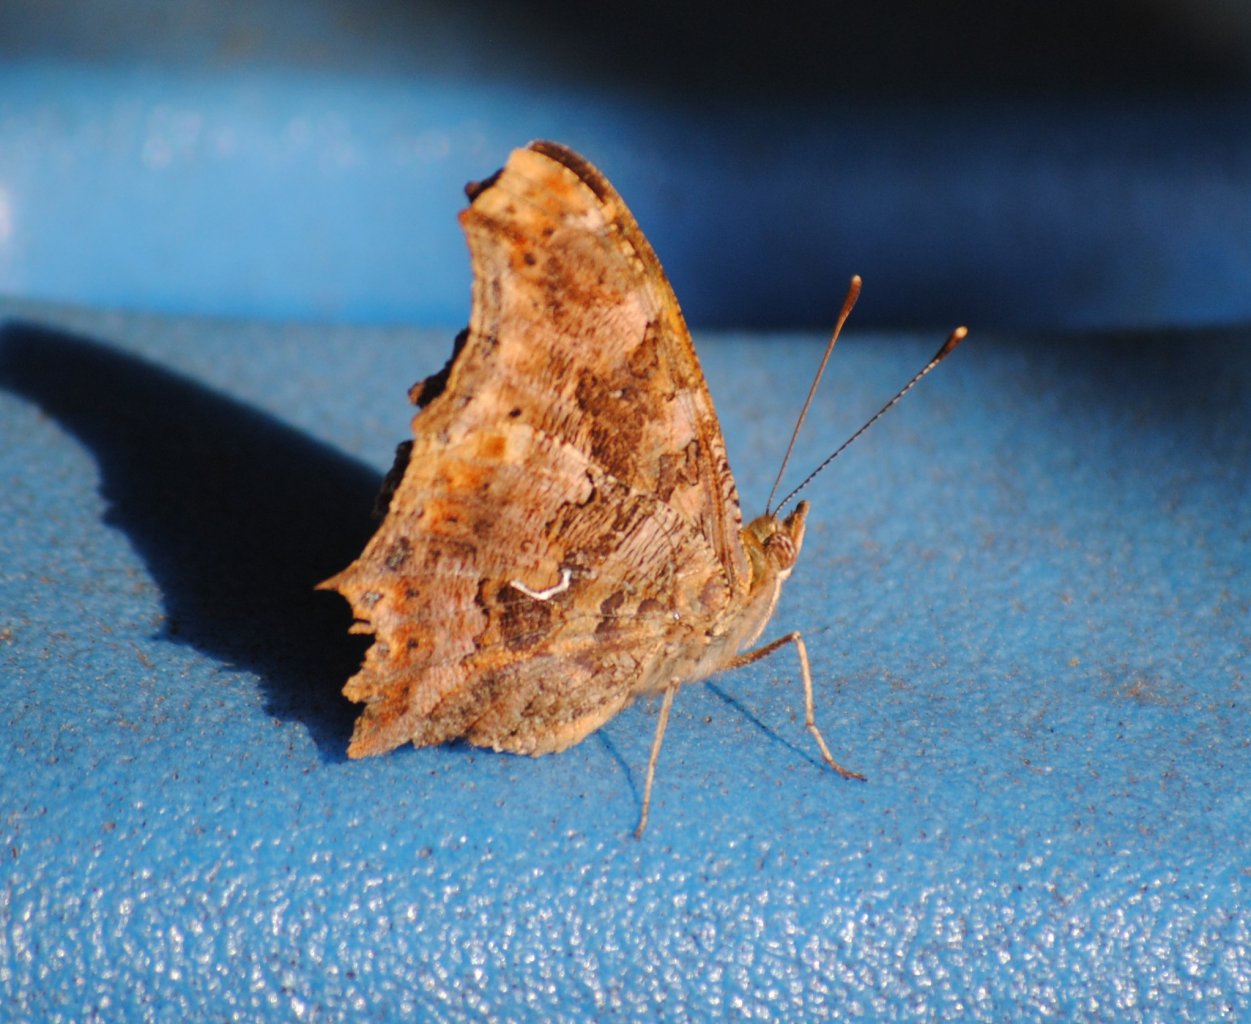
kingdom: Animalia
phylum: Arthropoda
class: Insecta
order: Lepidoptera
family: Nymphalidae
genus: Polygonia
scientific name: Polygonia comma
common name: Eastern Comma
